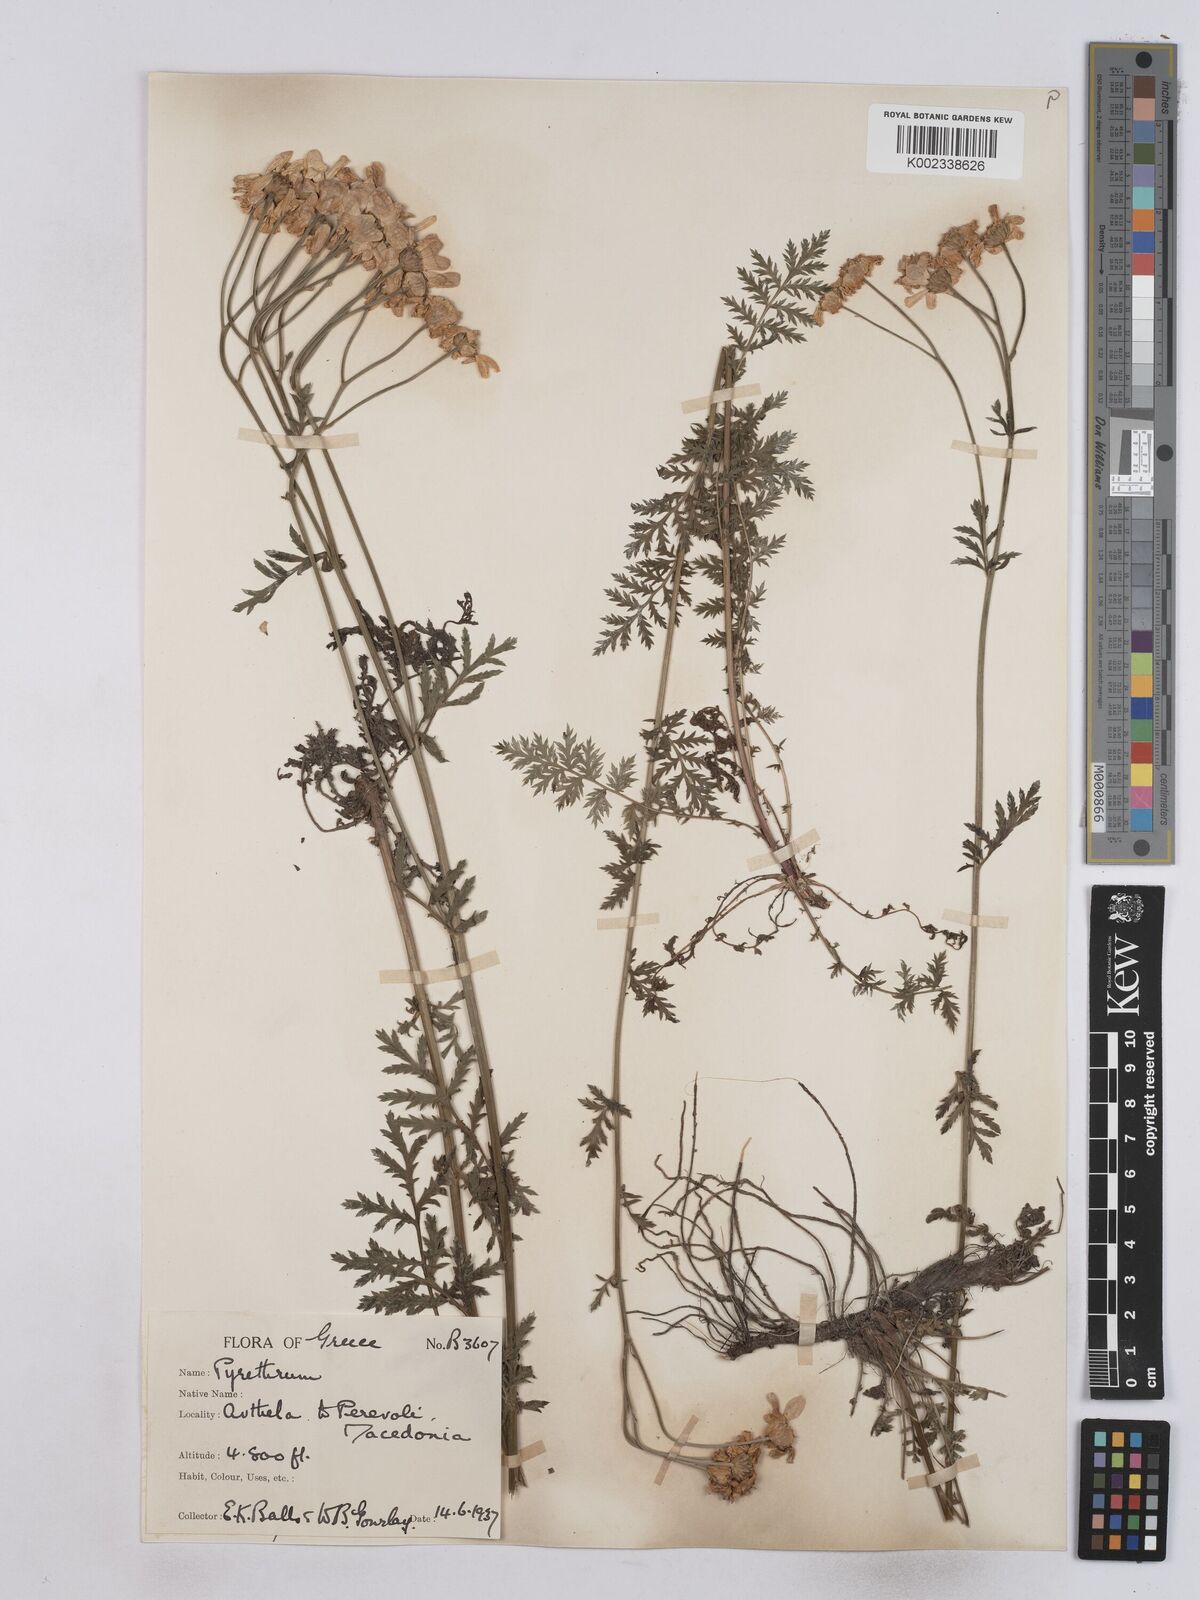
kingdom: Plantae
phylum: Tracheophyta
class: Magnoliopsida
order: Asterales
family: Asteraceae
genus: Tanacetum
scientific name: Tanacetum corymbosum
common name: Scentless feverfew
